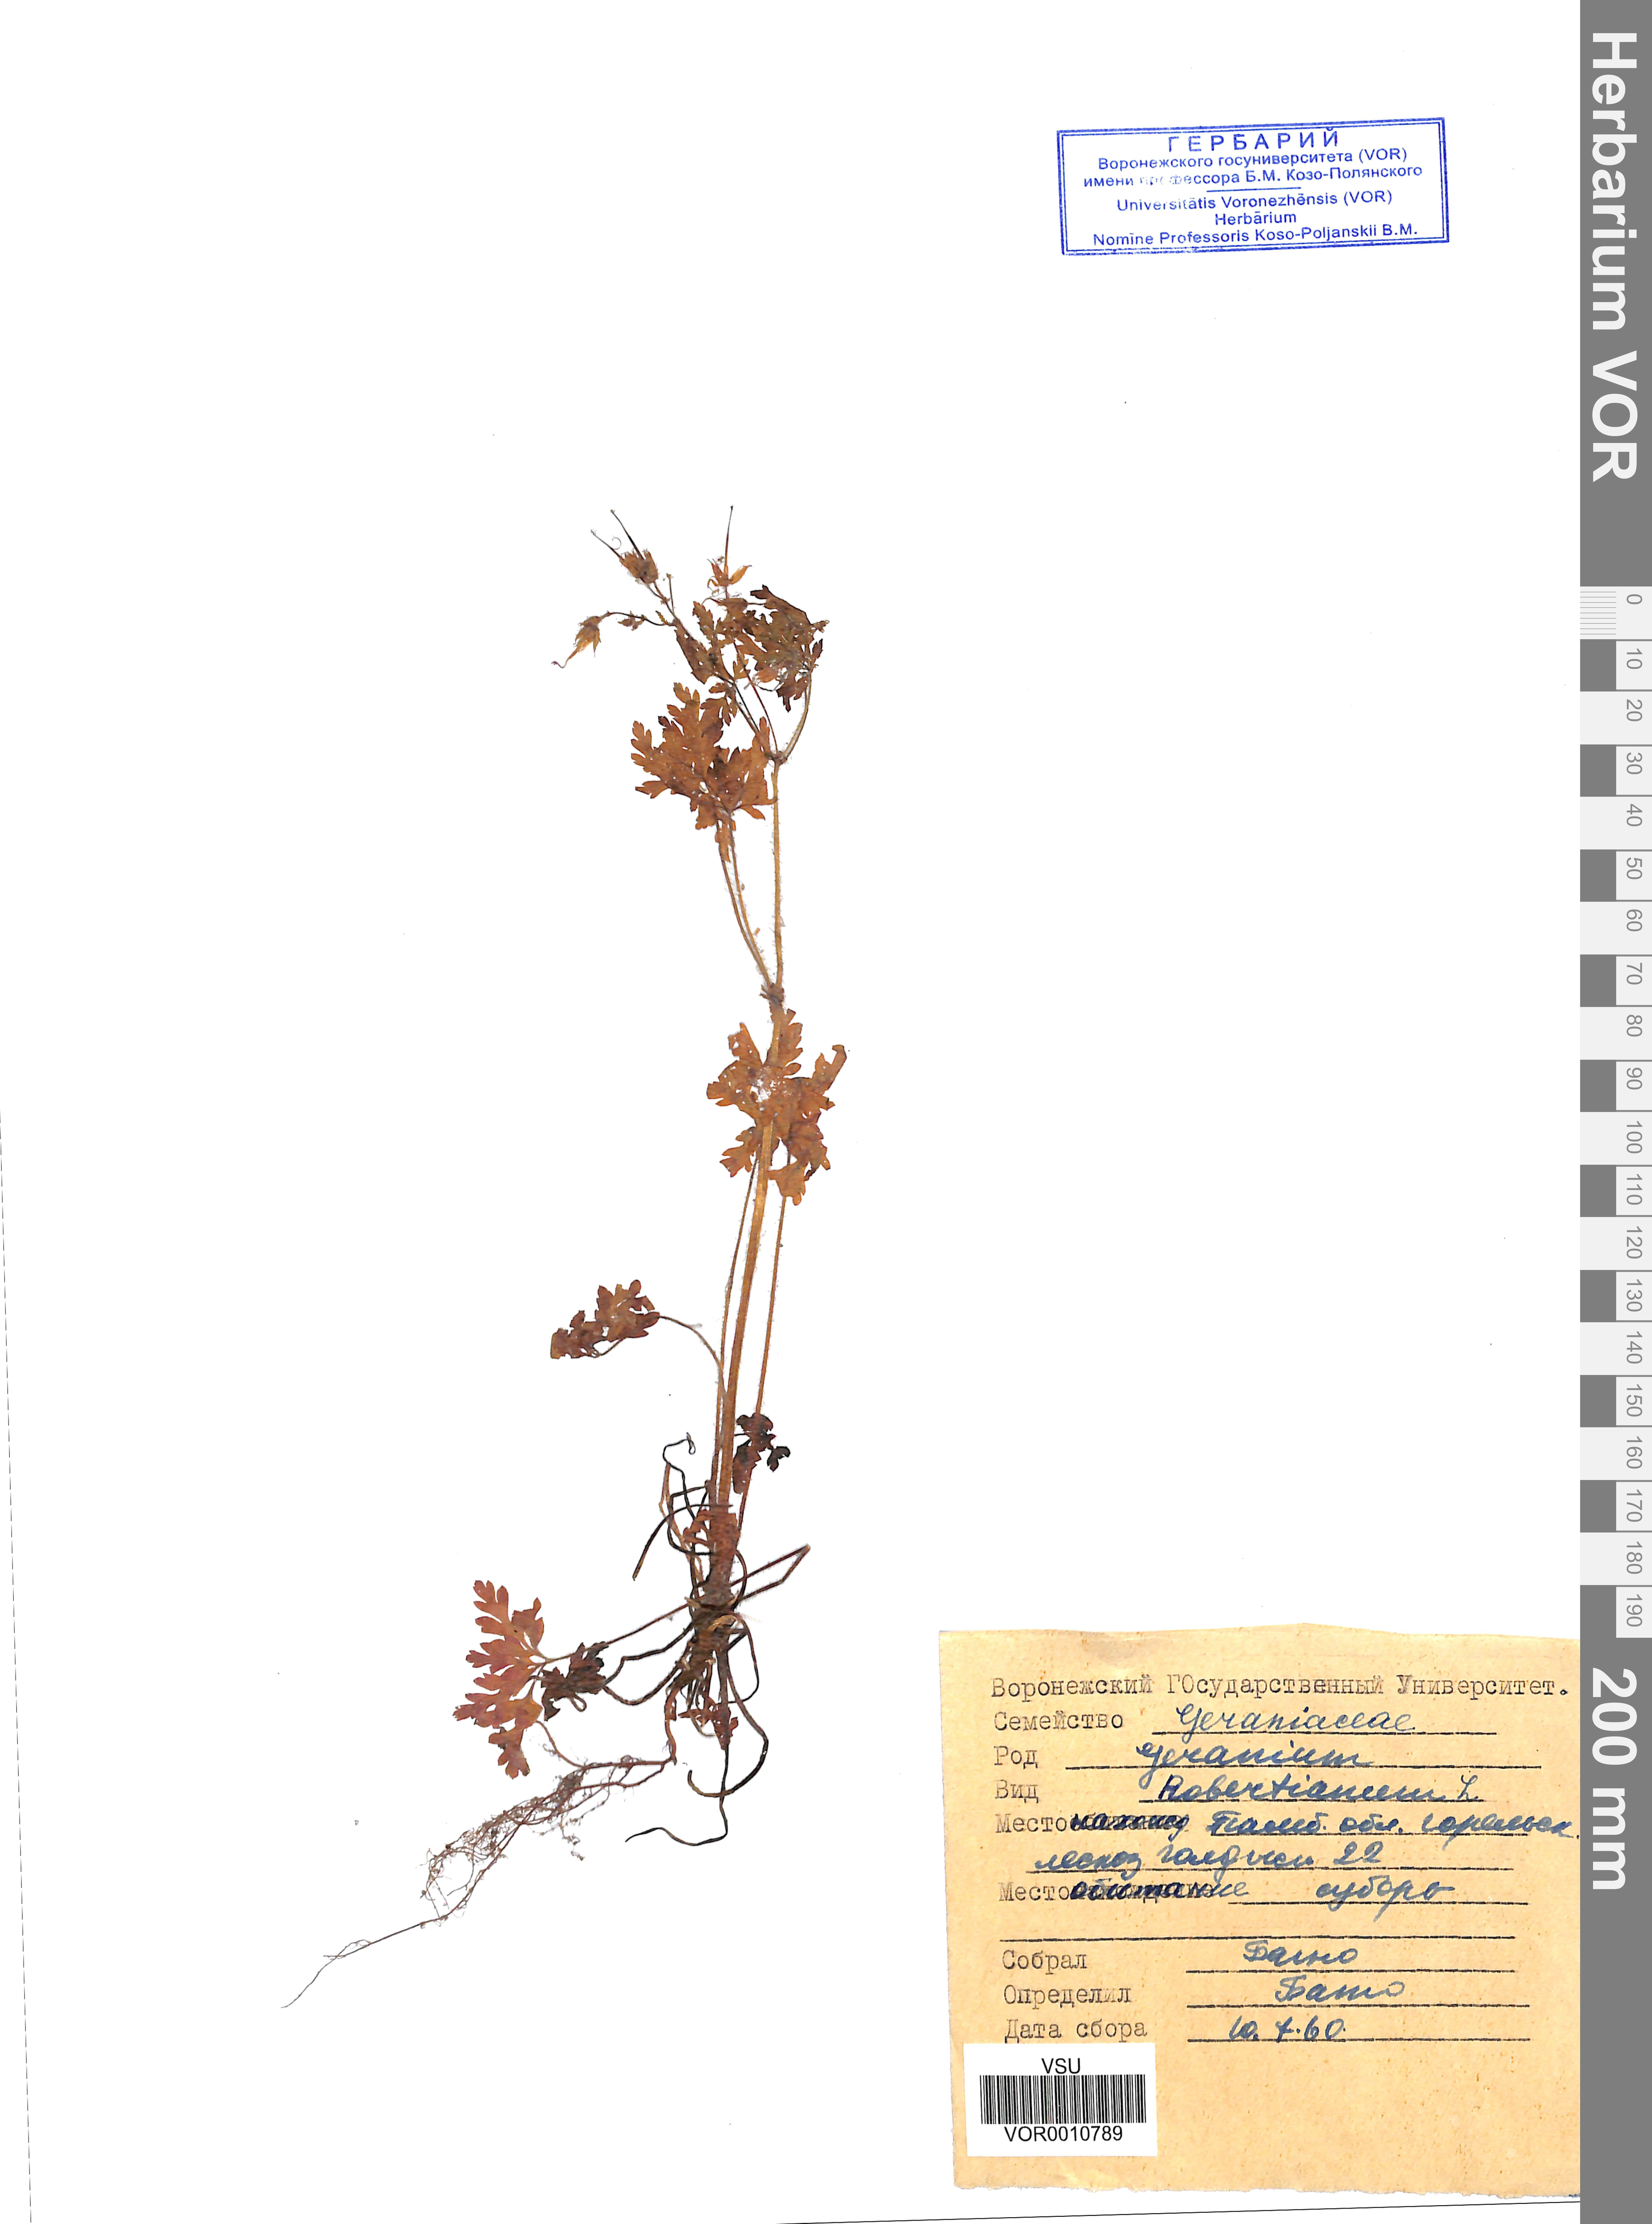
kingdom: Plantae
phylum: Tracheophyta
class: Magnoliopsida
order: Geraniales
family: Geraniaceae
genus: Geranium
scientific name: Geranium robertianum
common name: Herb-robert
